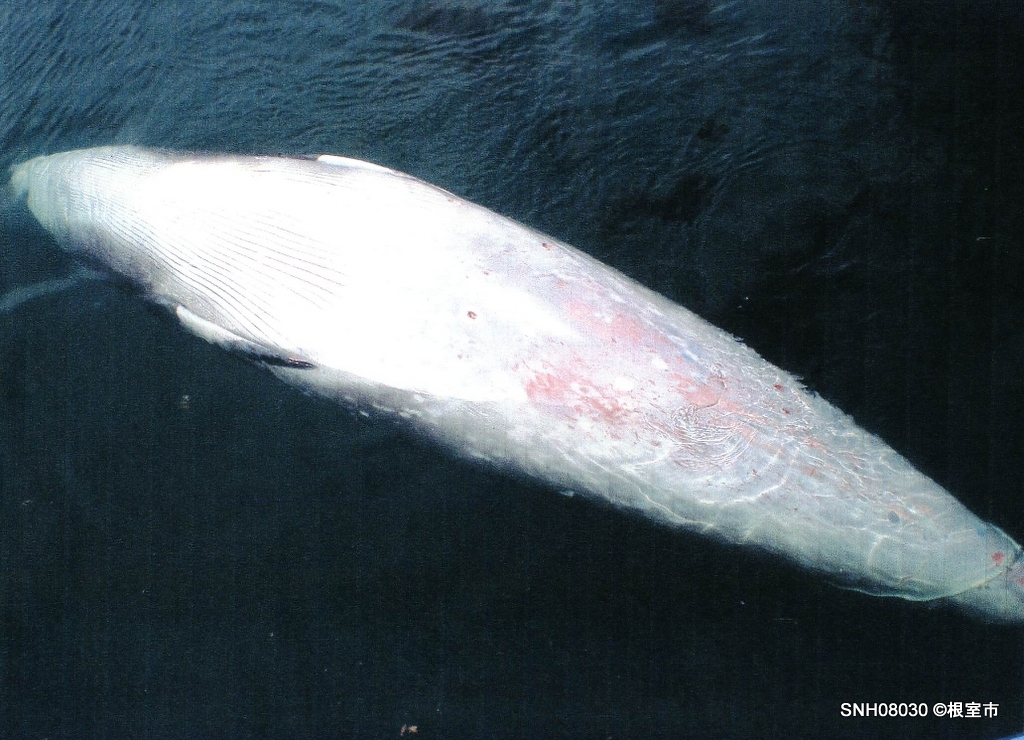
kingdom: Animalia
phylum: Chordata
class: Mammalia
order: Cetacea
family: Balaenopteridae
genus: Balaenoptera
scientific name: Balaenoptera acutorostrata
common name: Minke whale
